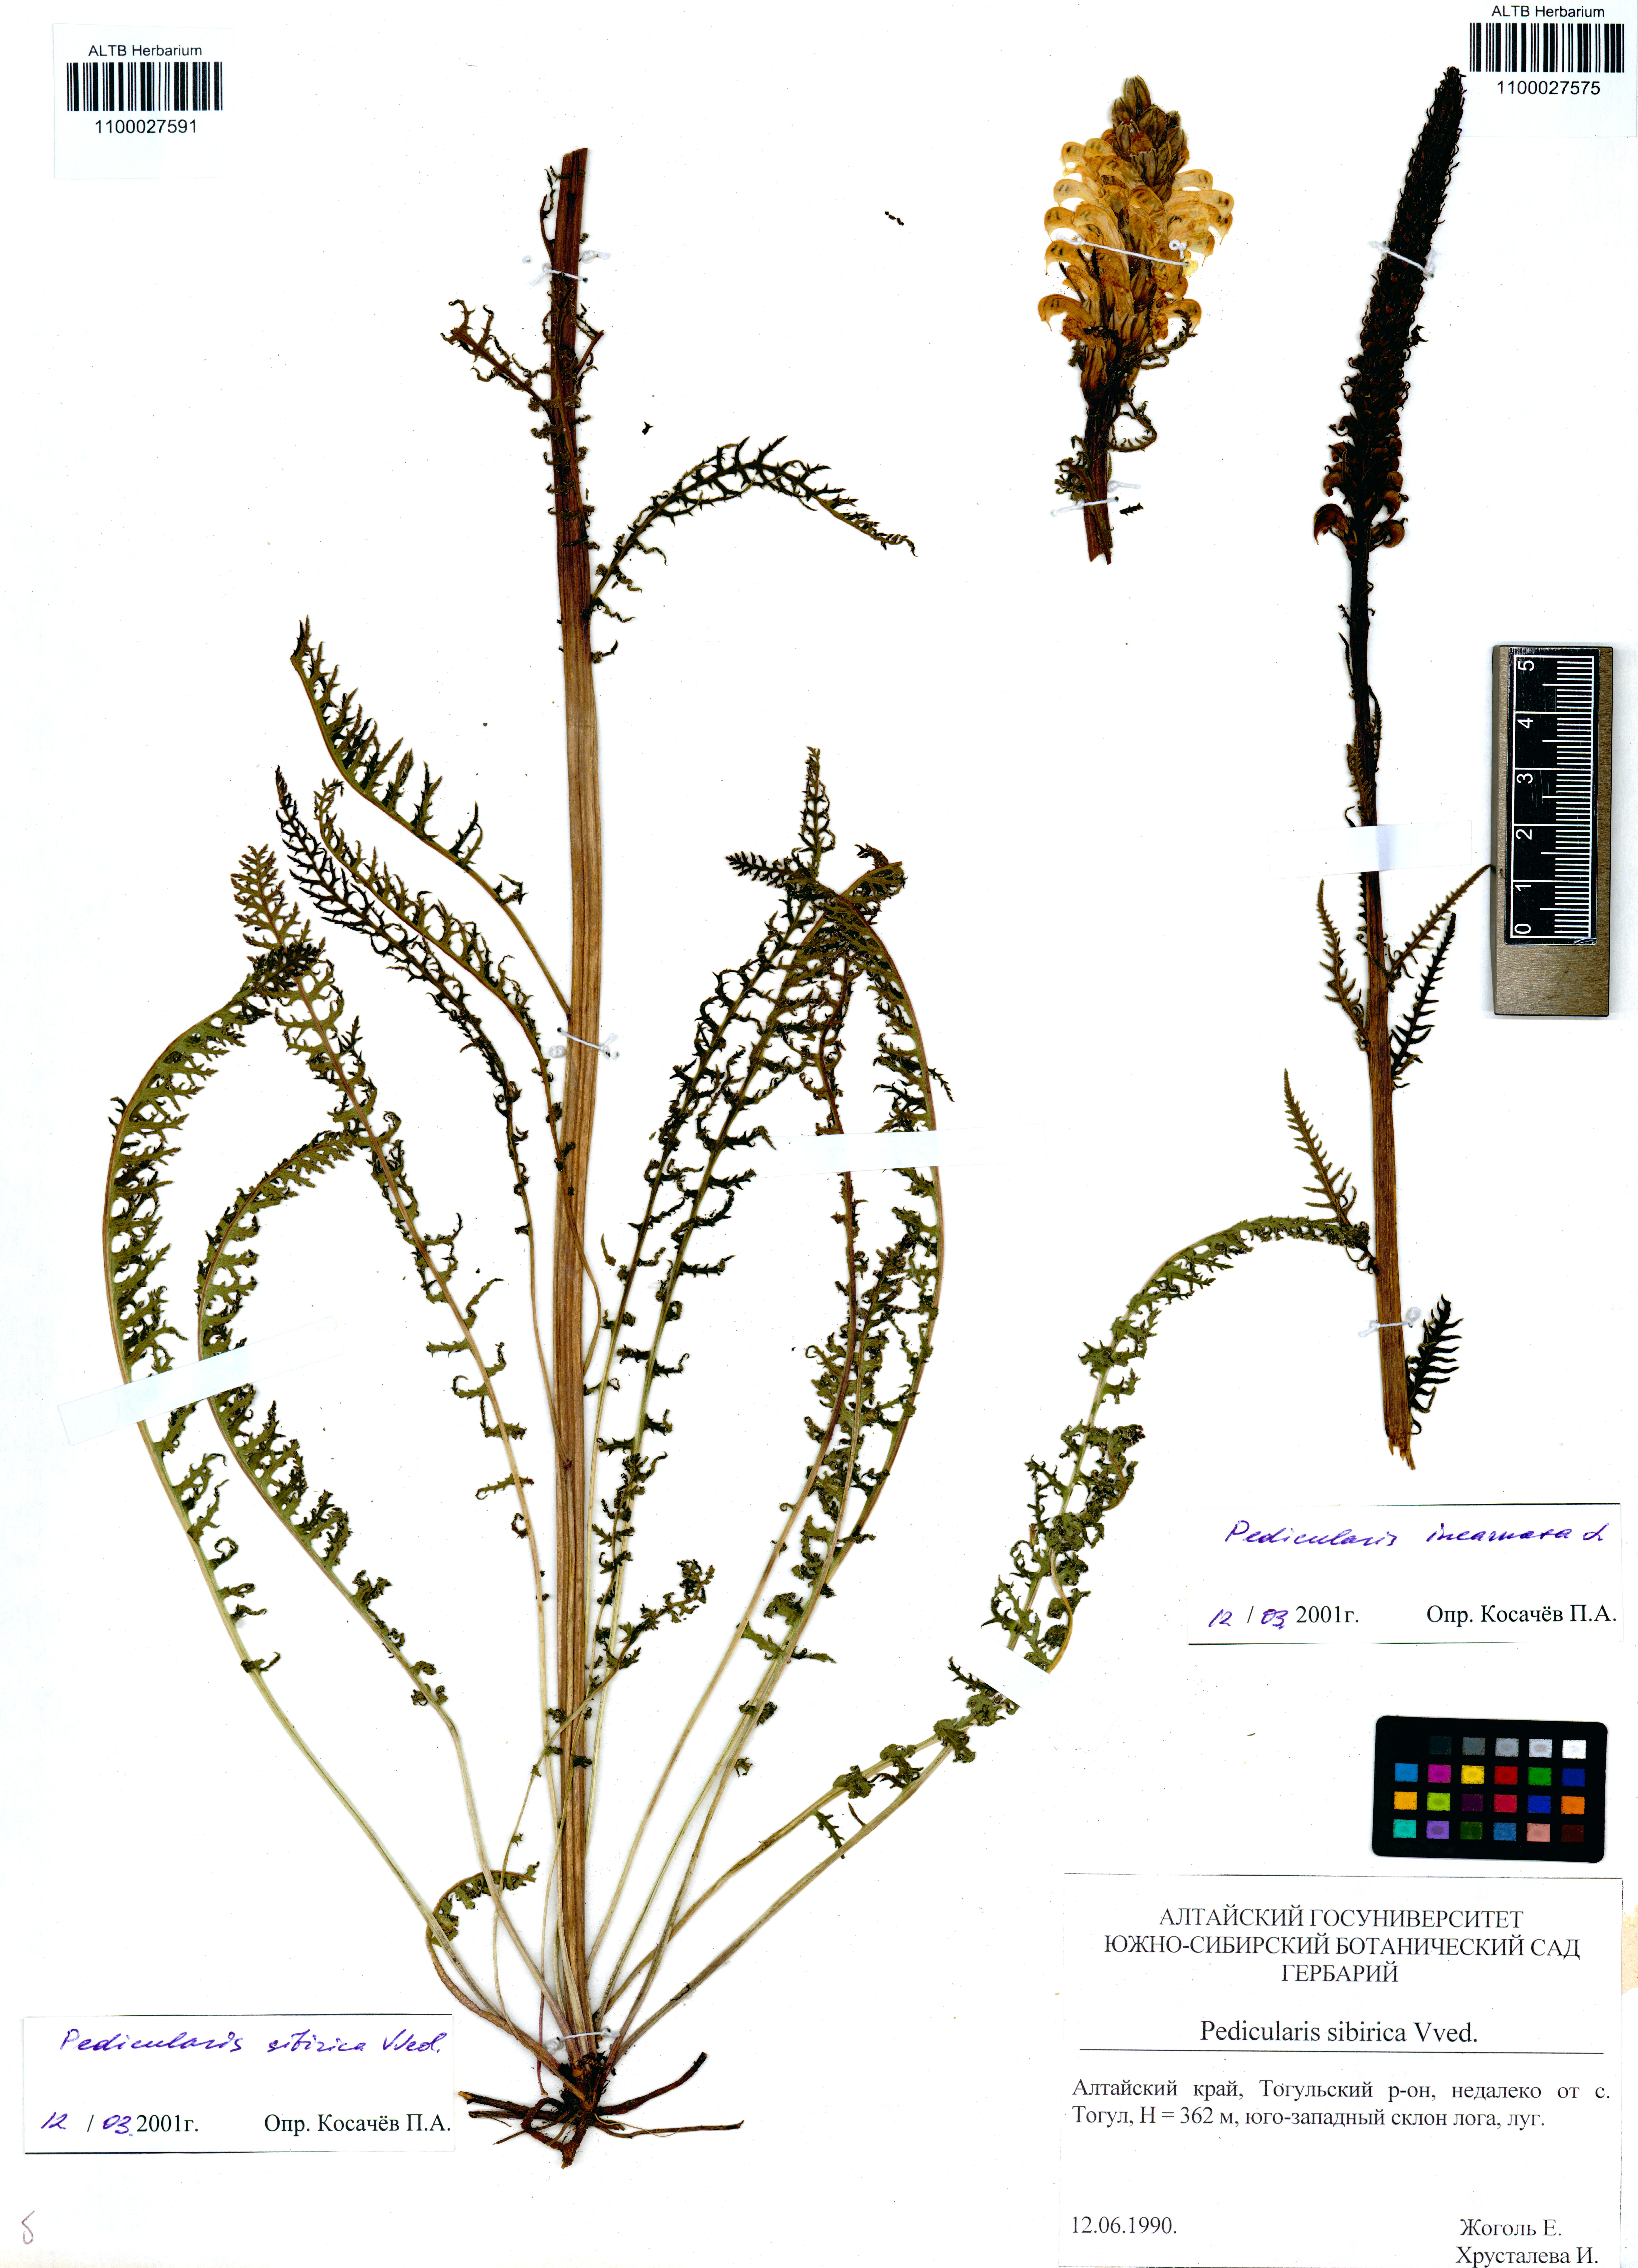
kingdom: Plantae
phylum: Tracheophyta
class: Magnoliopsida
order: Lamiales
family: Orobanchaceae
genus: Pedicularis
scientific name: Pedicularis sibirica
